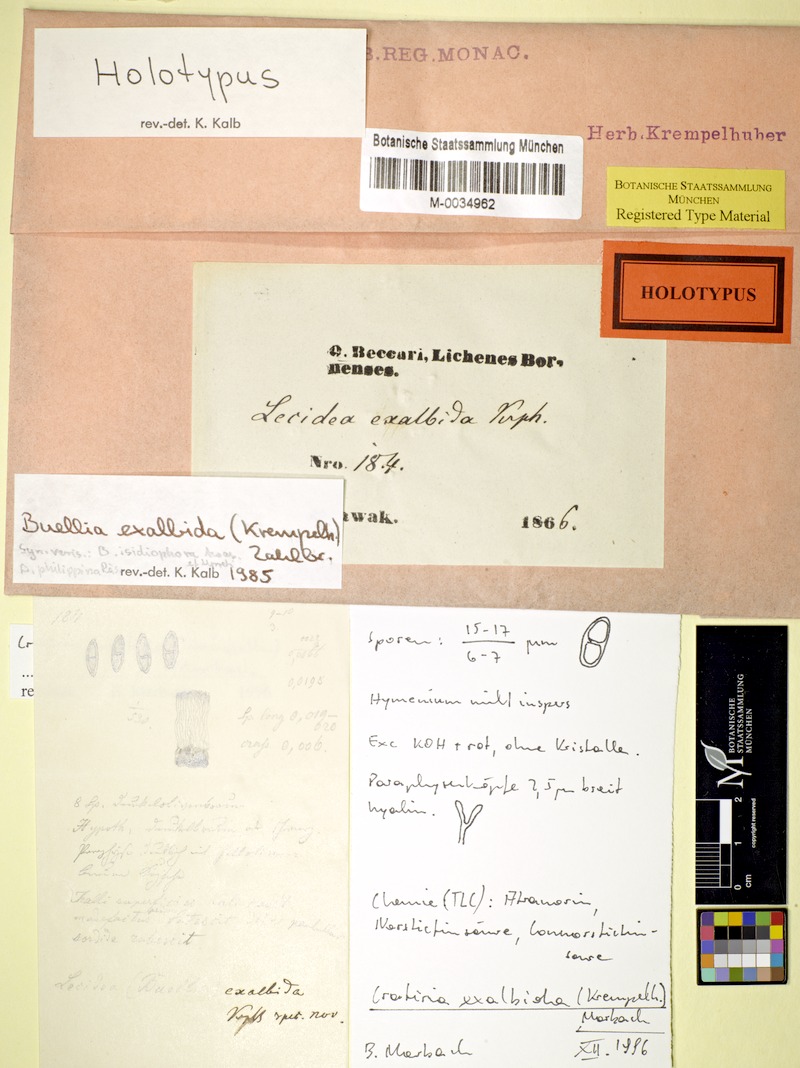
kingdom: Fungi
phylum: Ascomycota
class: Lecanoromycetes
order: Caliciales
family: Caliciaceae
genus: Cratiria
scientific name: Cratiria exalbida
